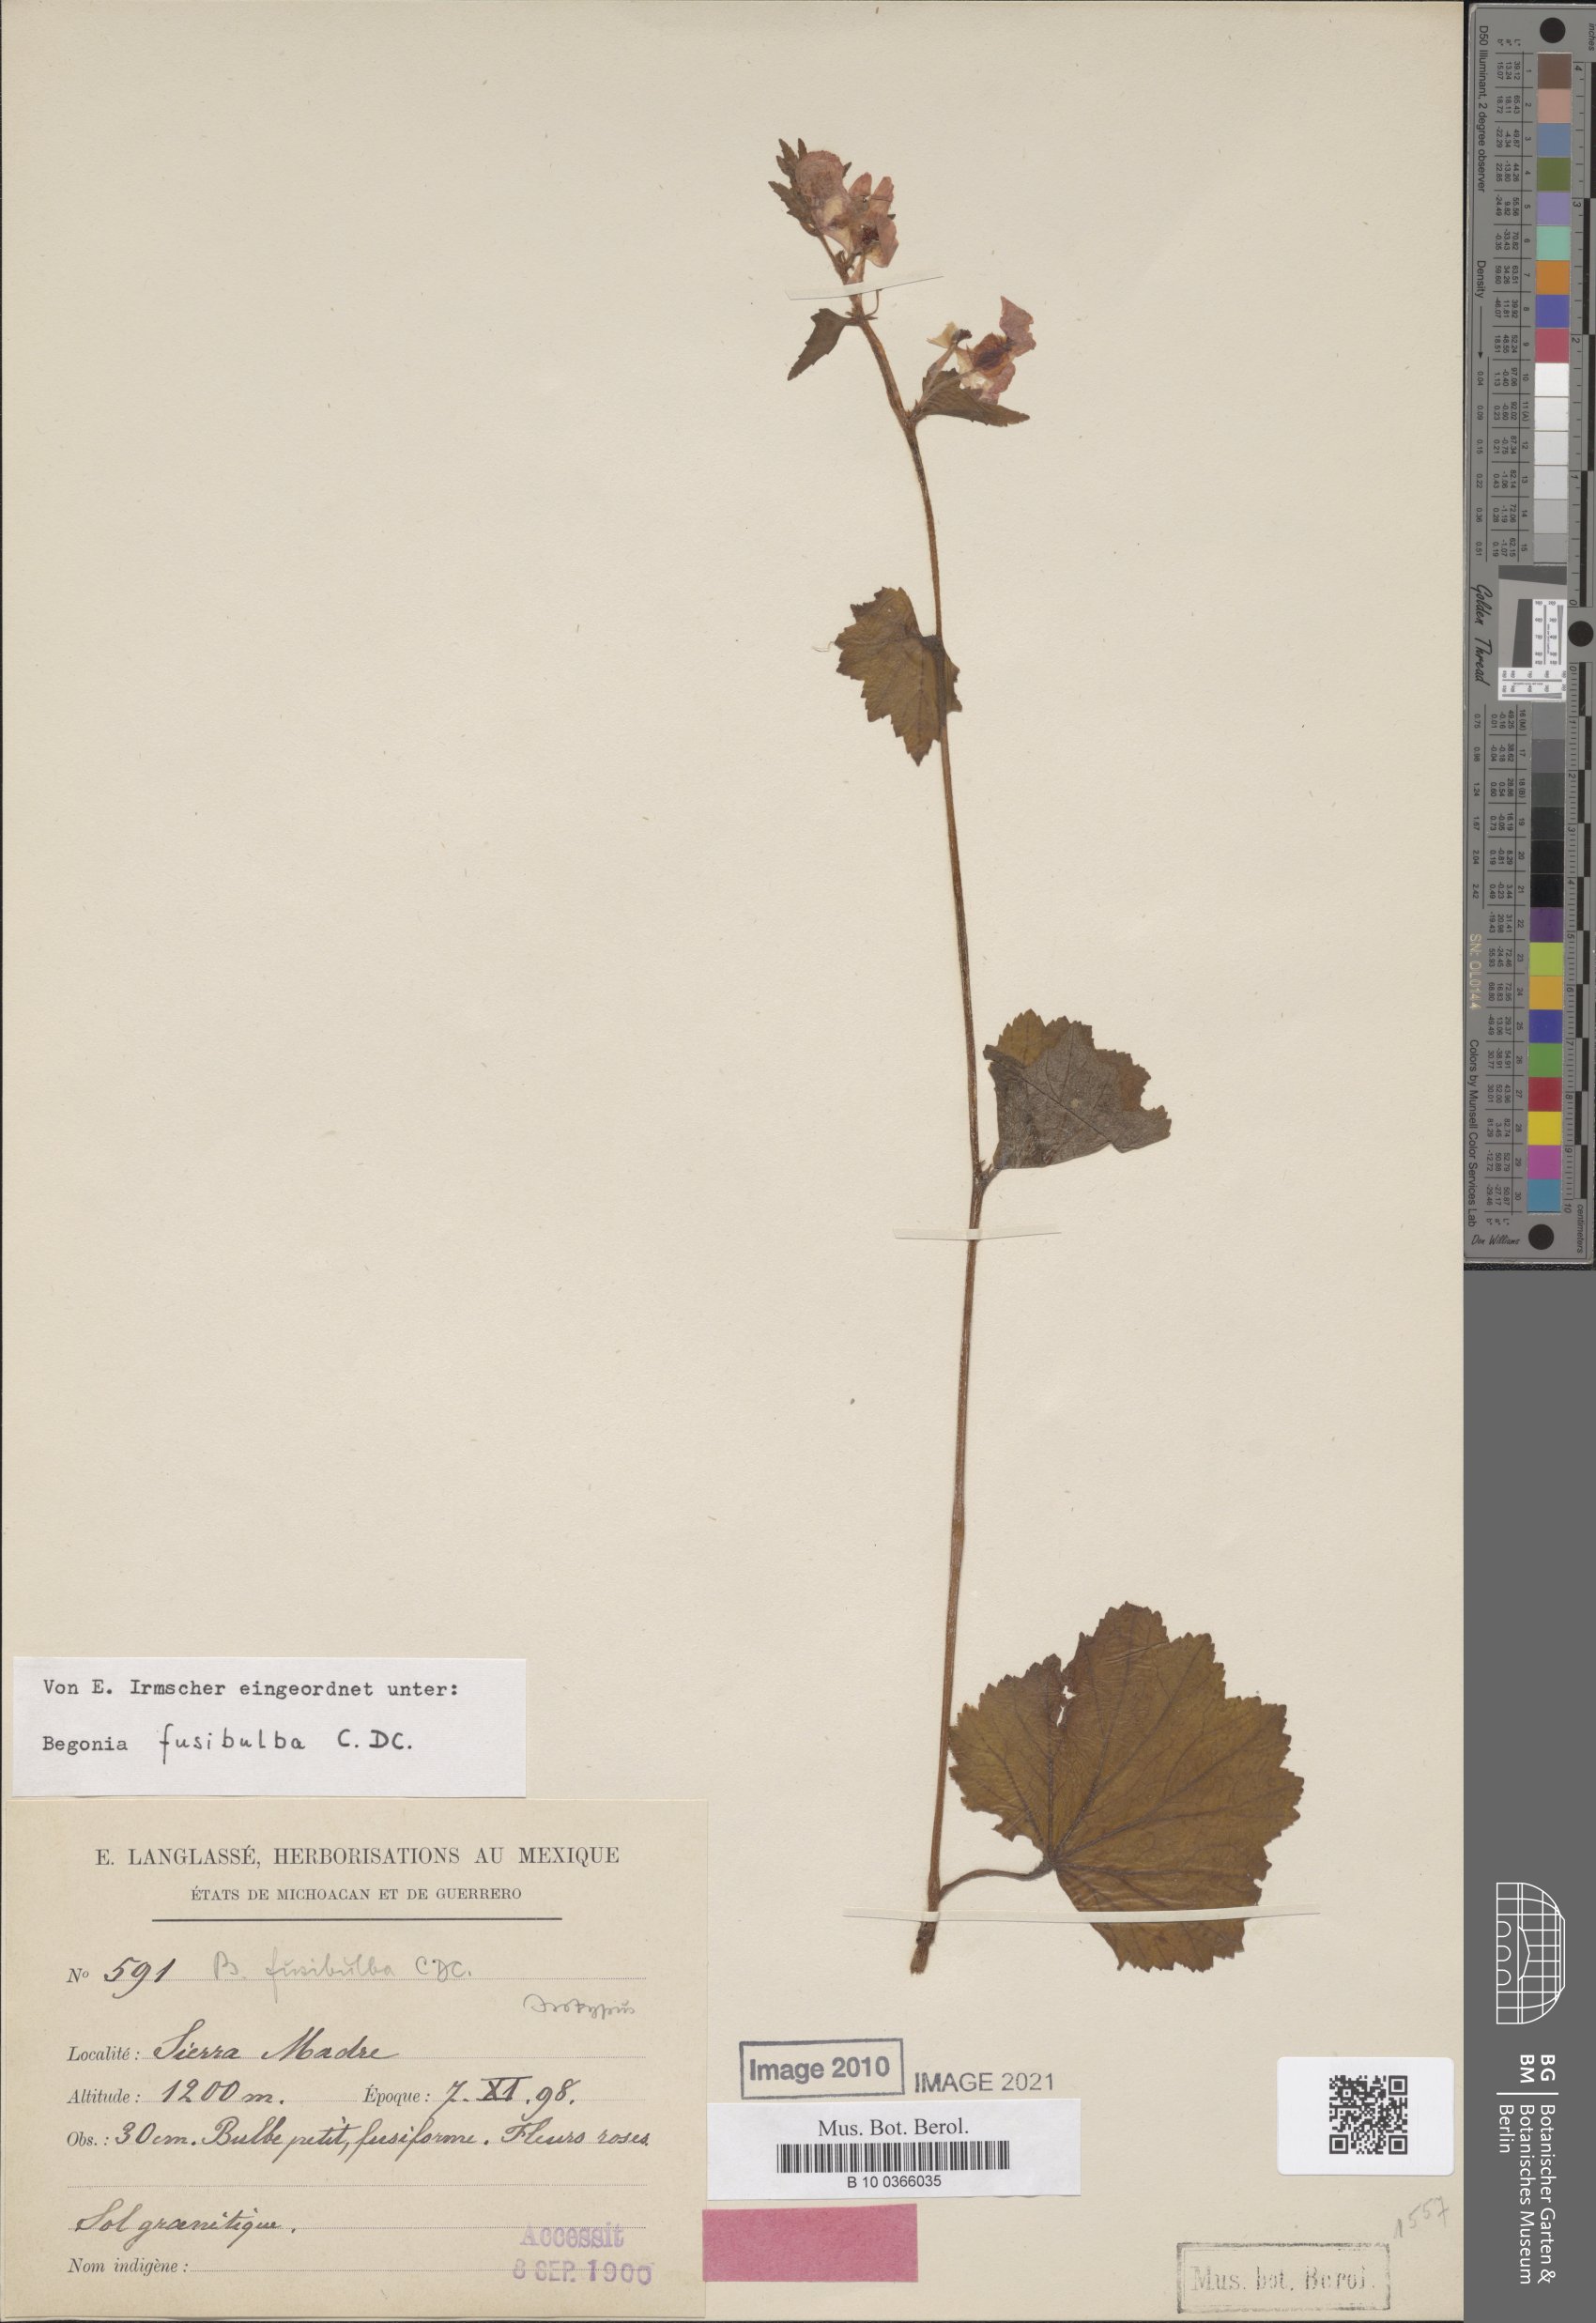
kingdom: Plantae
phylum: Tracheophyta
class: Magnoliopsida
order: Cucurbitales
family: Begoniaceae
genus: Begonia
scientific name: Begonia fusibulba
